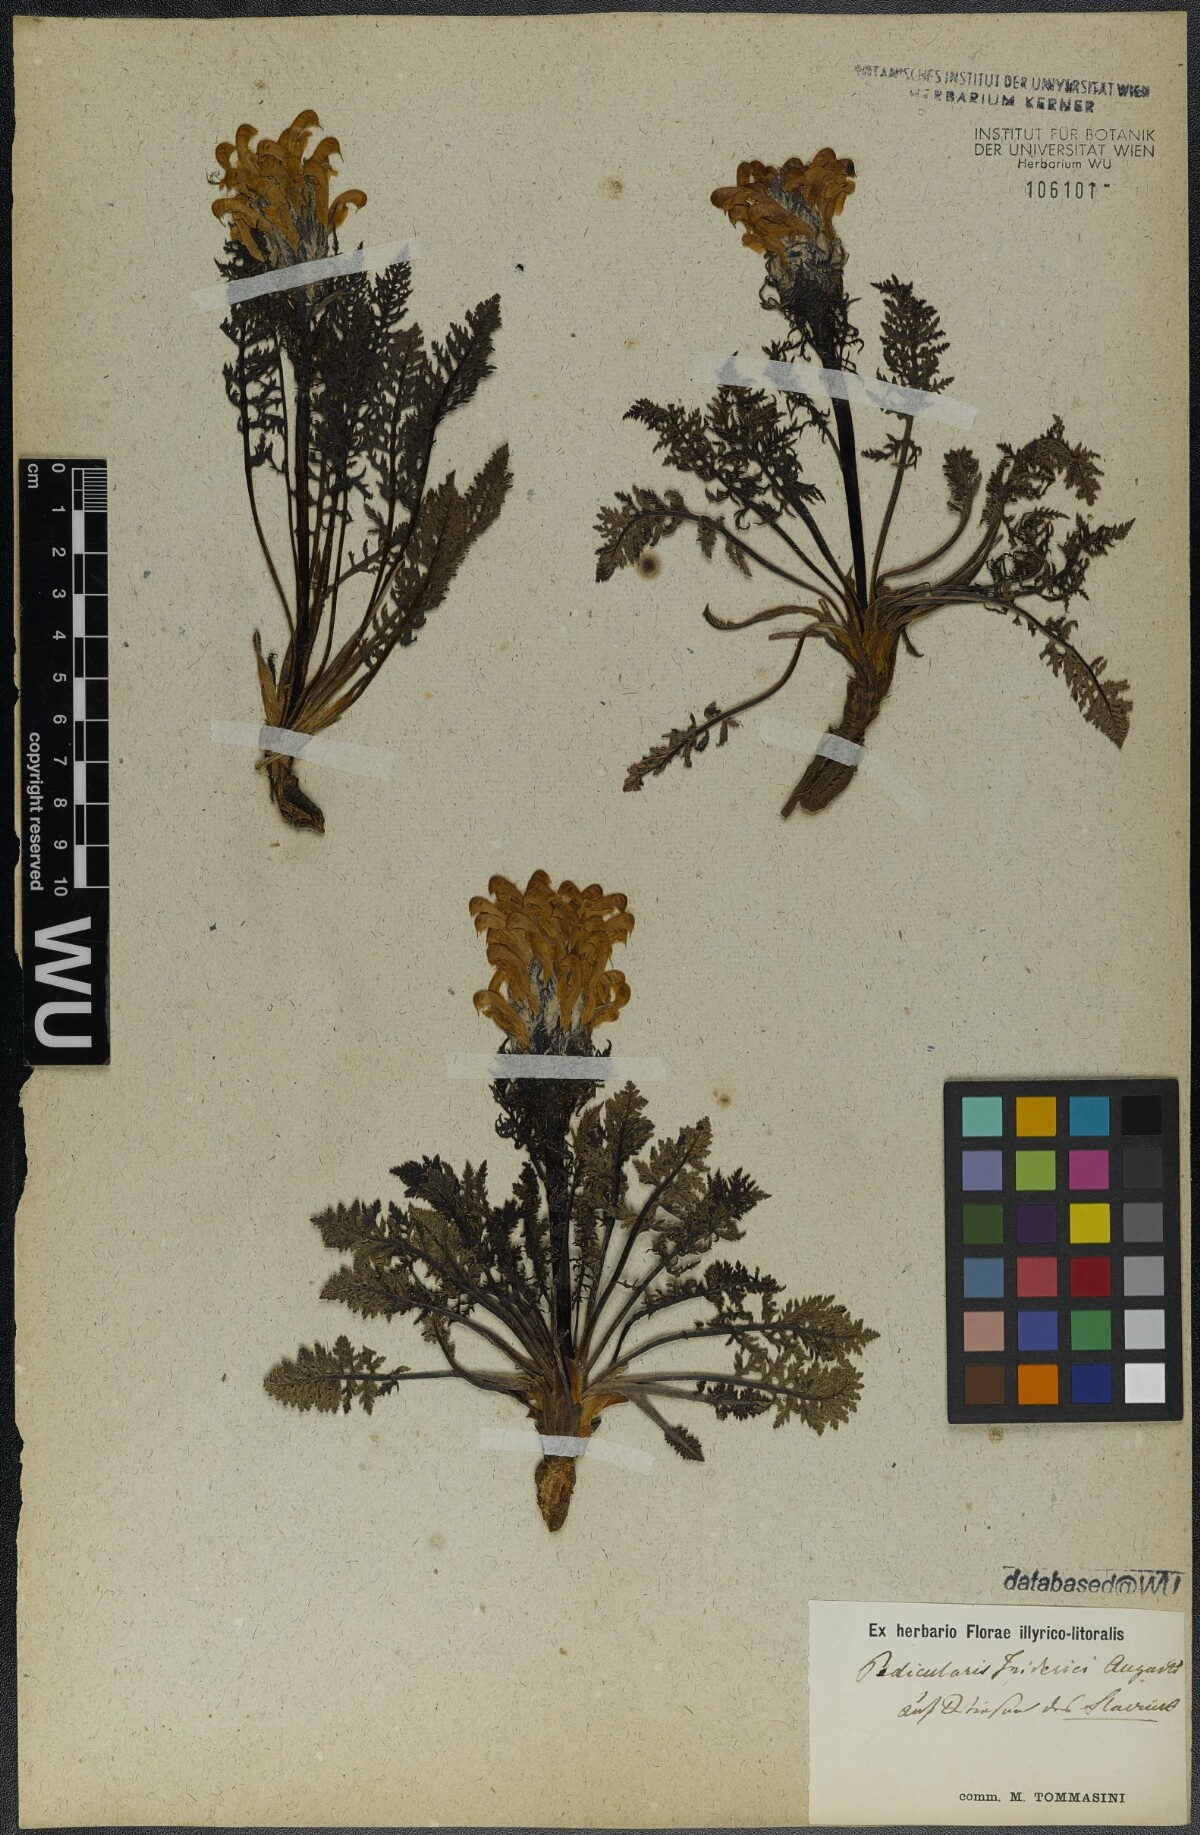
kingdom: Plantae
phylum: Tracheophyta
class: Magnoliopsida
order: Lamiales
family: Orobanchaceae
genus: Pedicularis
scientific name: Pedicularis friderici-augusti
